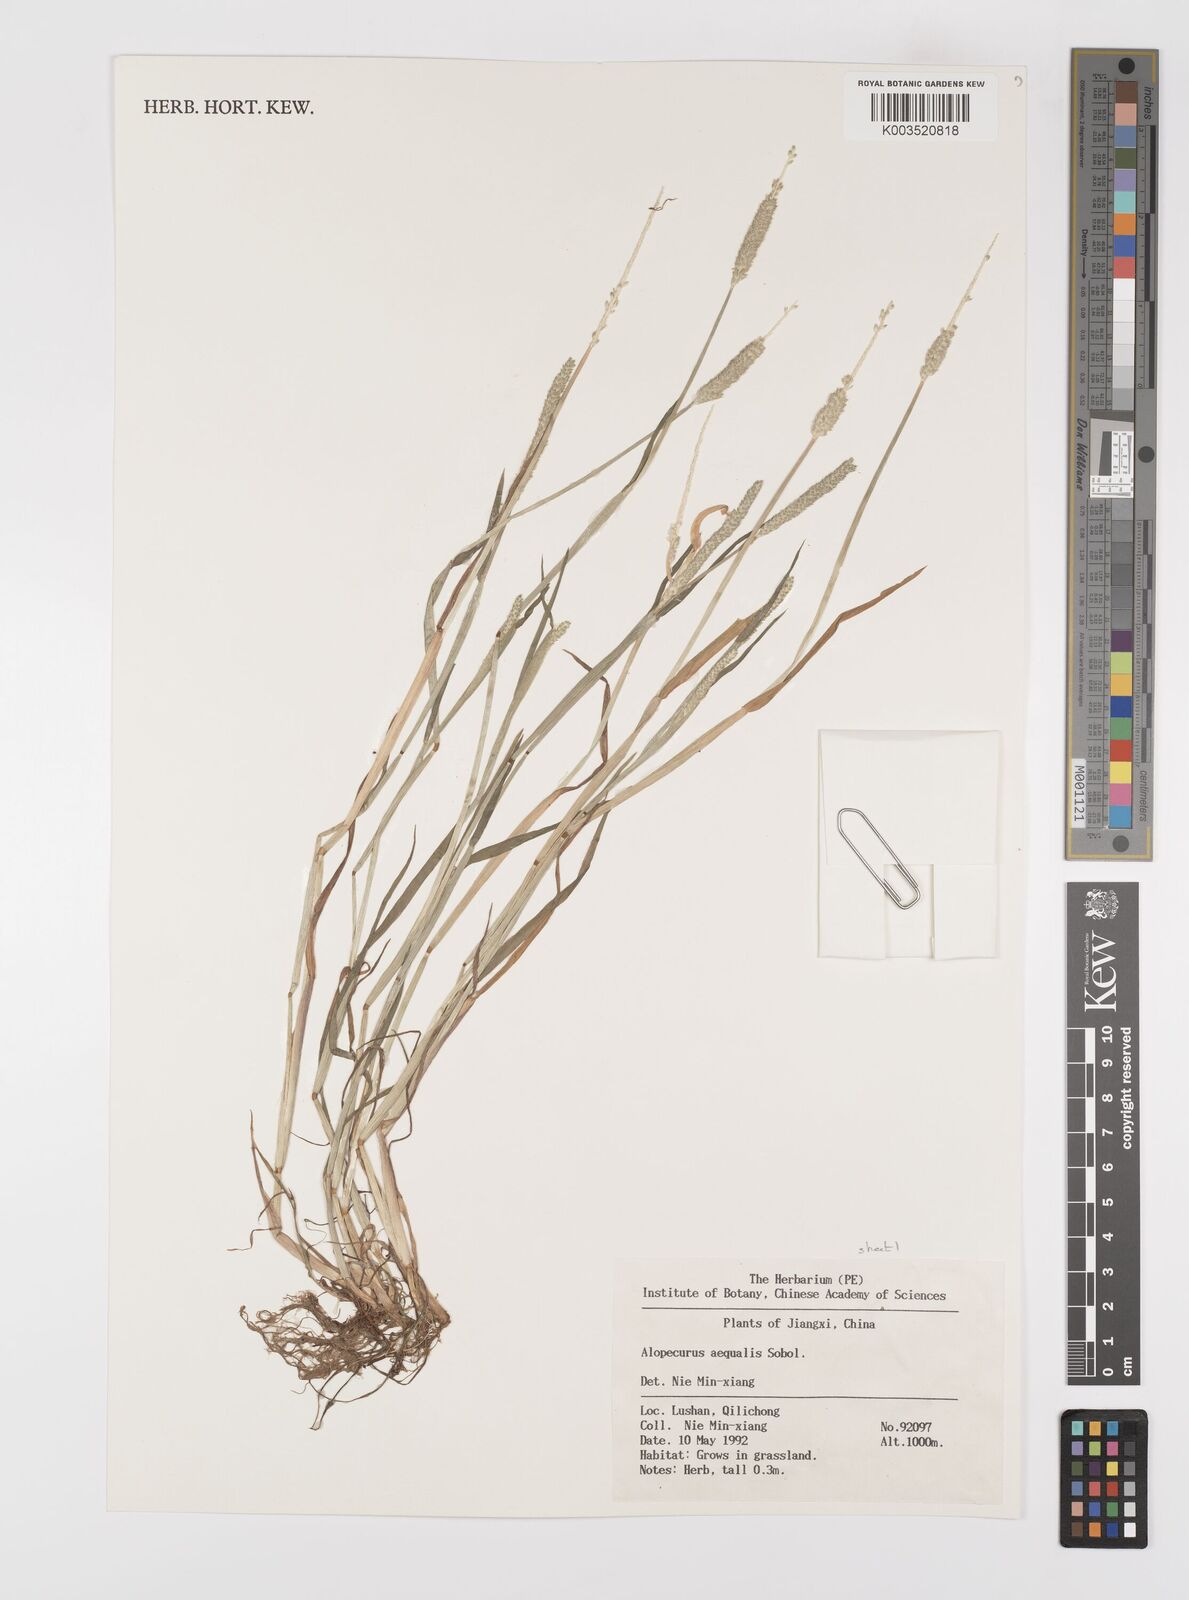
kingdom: Plantae
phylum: Tracheophyta
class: Liliopsida
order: Poales
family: Poaceae
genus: Alopecurus
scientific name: Alopecurus aequalis
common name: Orange foxtail
